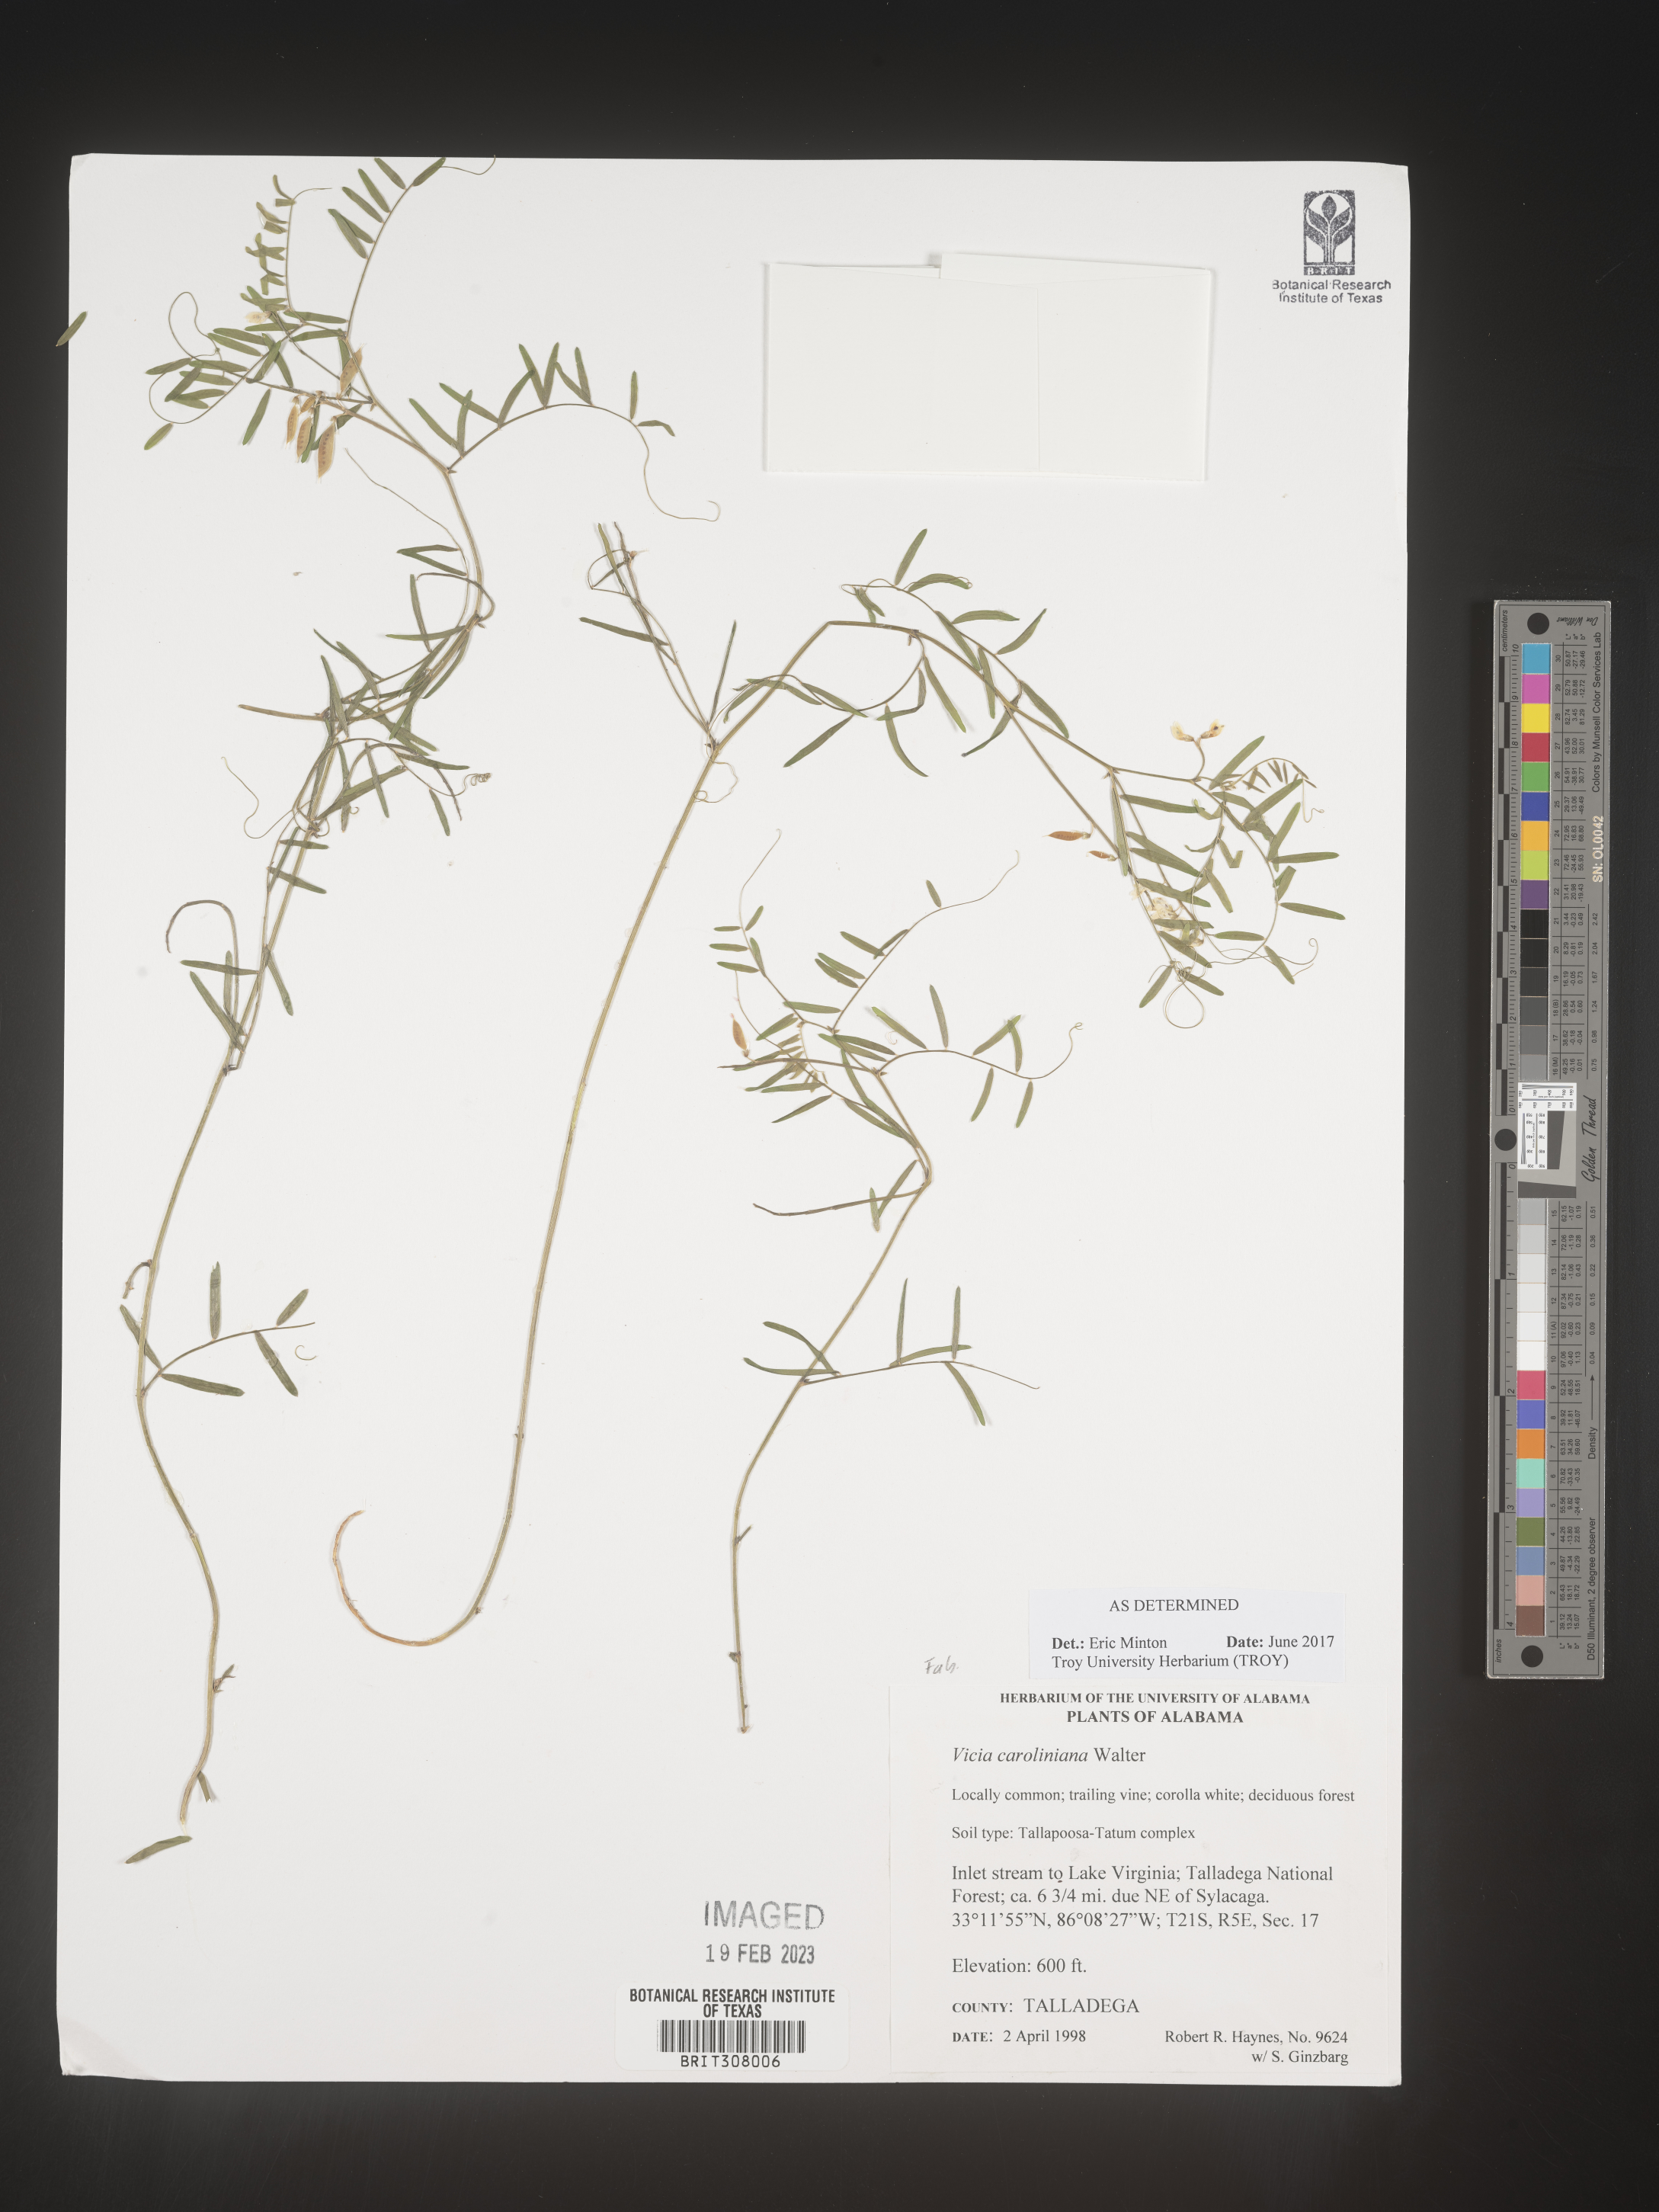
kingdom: Plantae
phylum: Tracheophyta
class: Magnoliopsida
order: Fabales
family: Fabaceae
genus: Vicia
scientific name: Vicia caroliniana
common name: Carolina vetch
